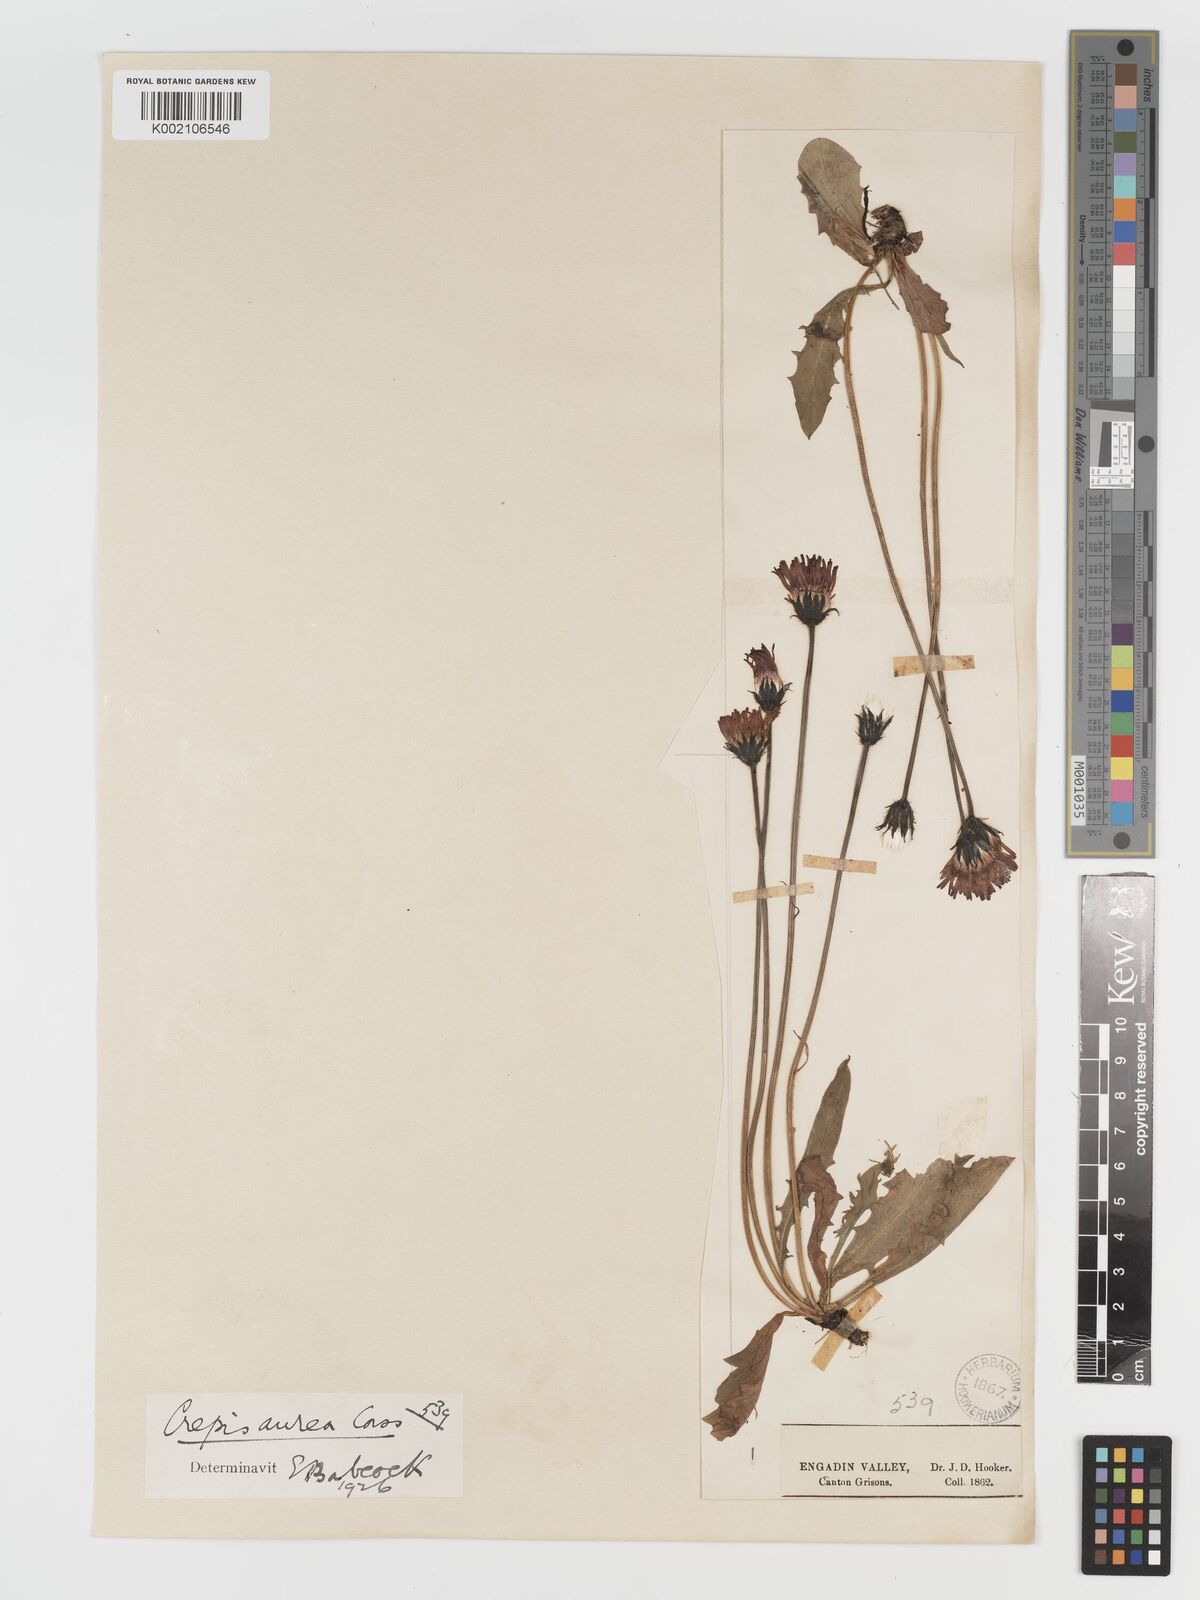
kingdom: Plantae
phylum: Tracheophyta
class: Magnoliopsida
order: Asterales
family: Asteraceae
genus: Crepis
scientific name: Crepis aurea
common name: Golden hawk's-beard
